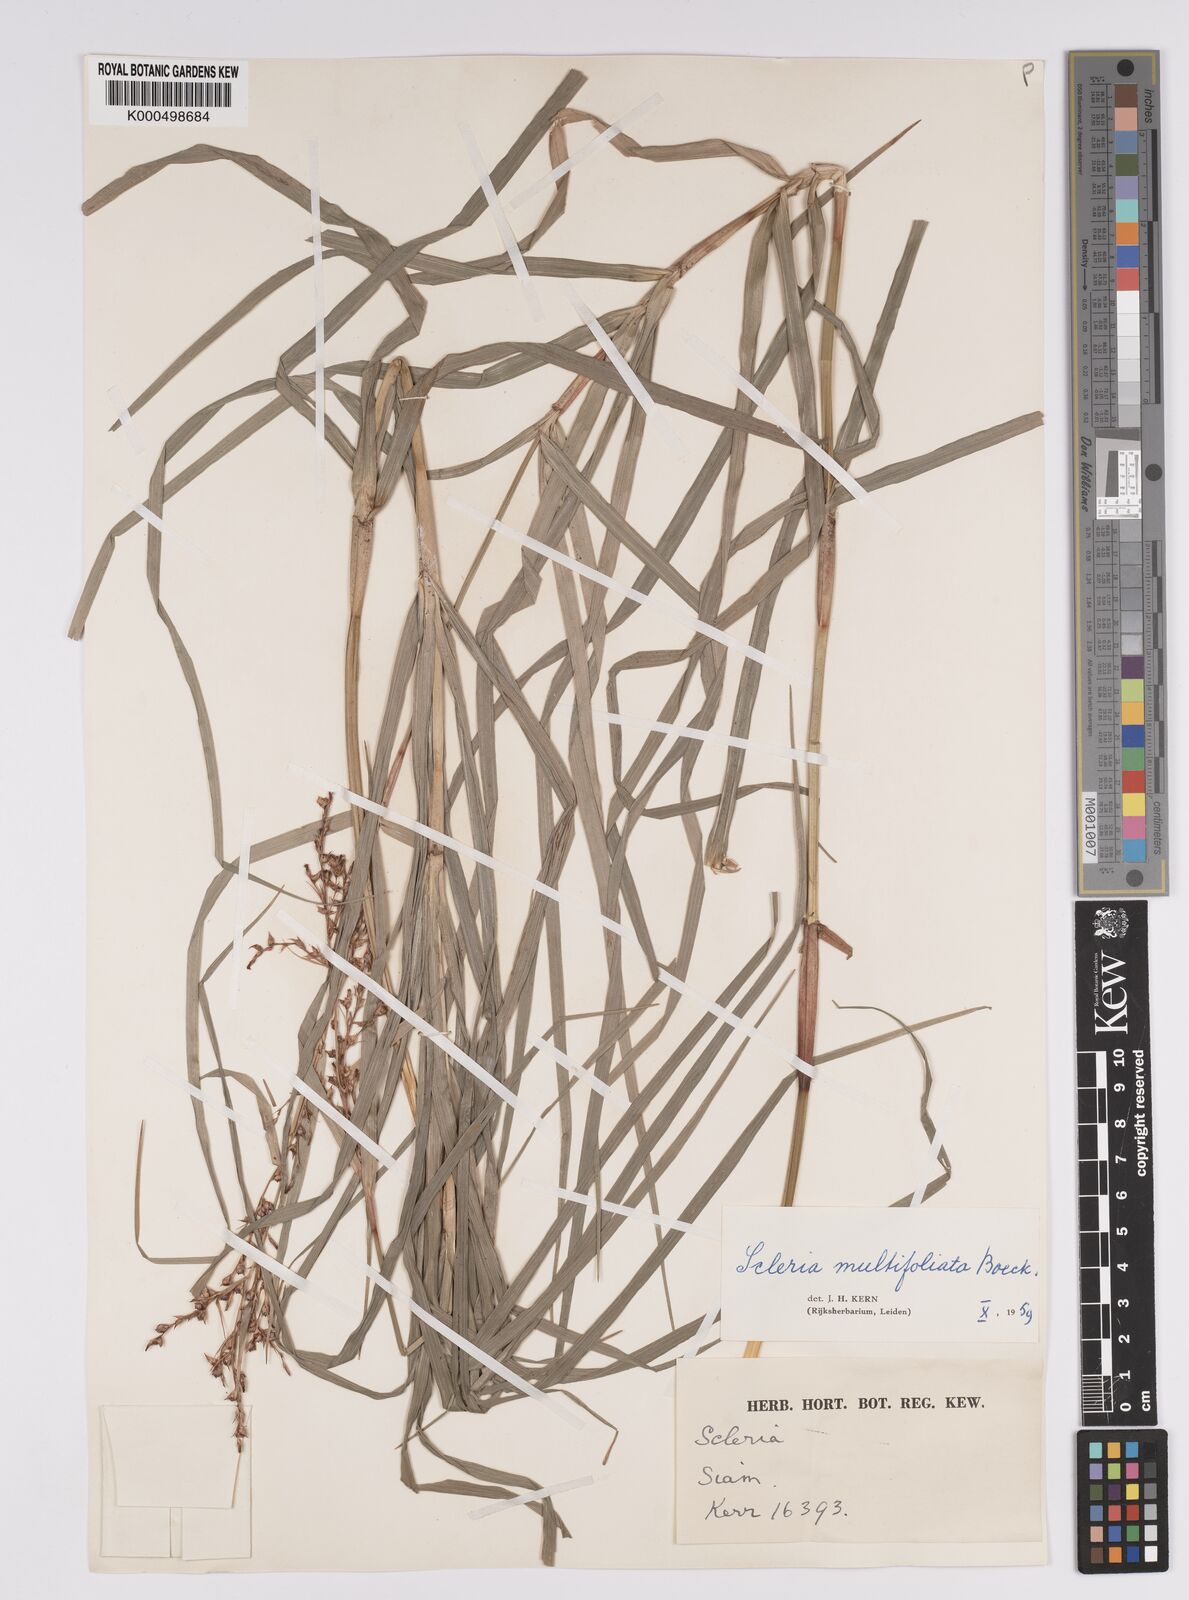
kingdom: Plantae
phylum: Tracheophyta
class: Liliopsida
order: Poales
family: Cyperaceae
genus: Scleria
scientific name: Scleria purpurascens
